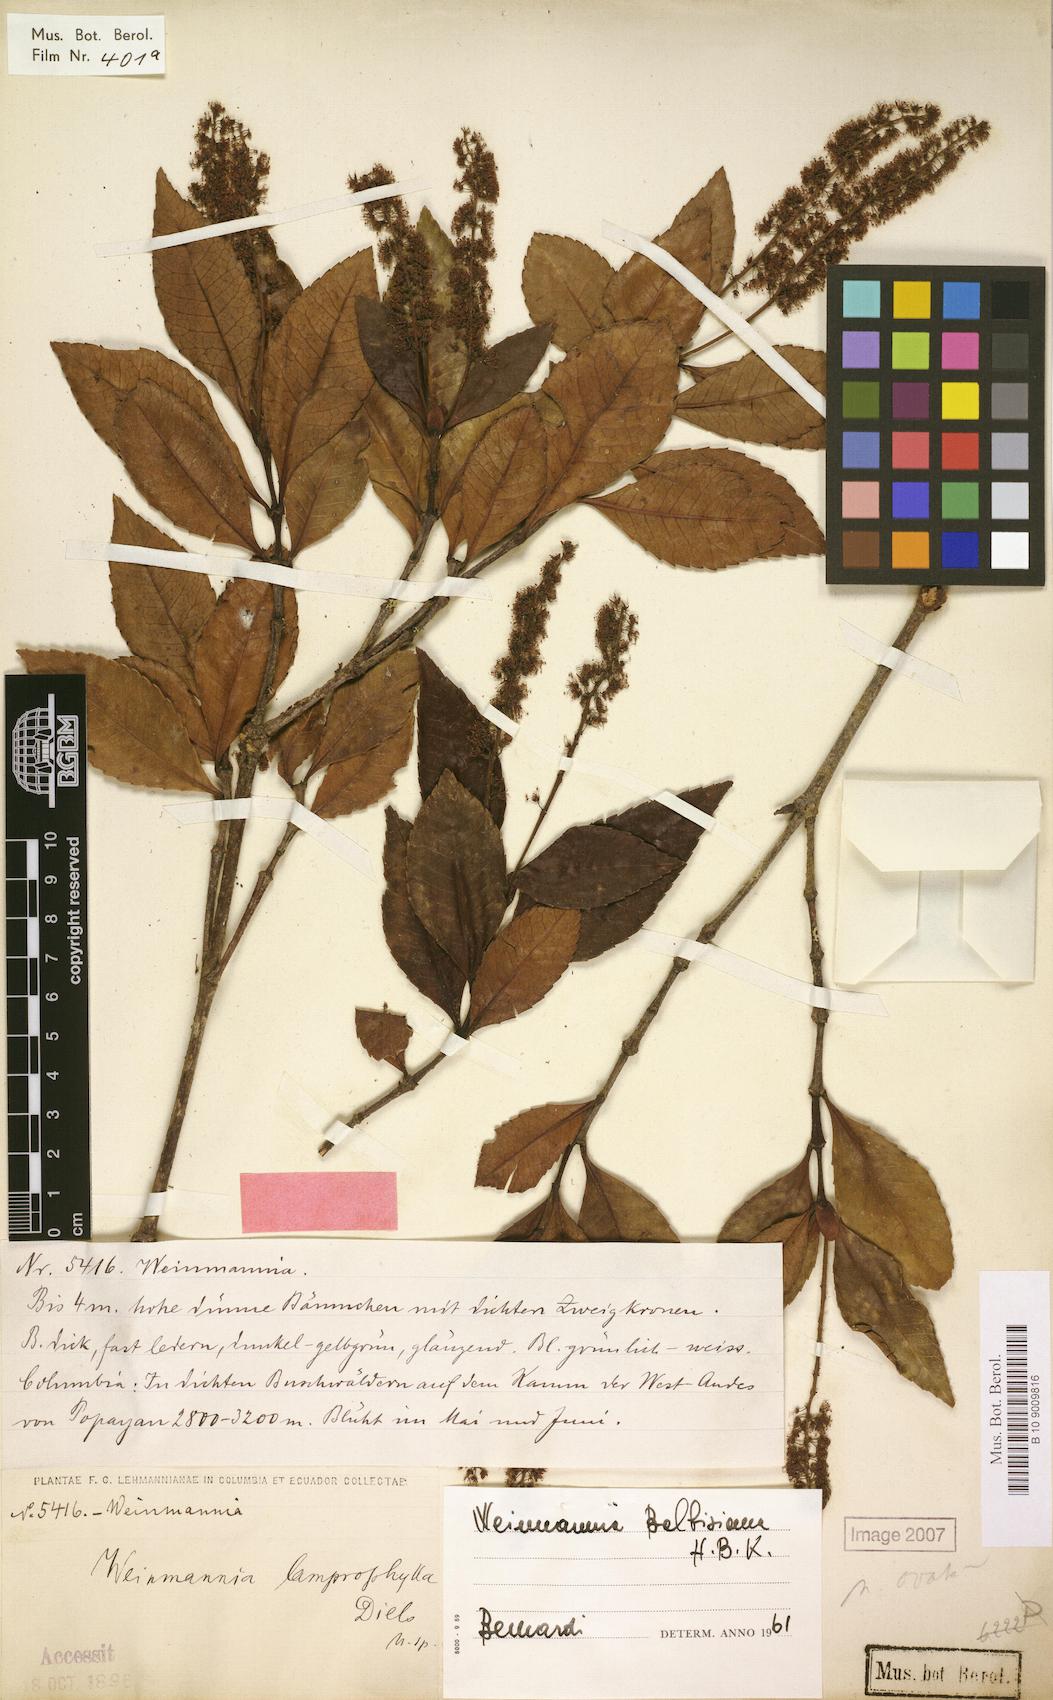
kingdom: Plantae
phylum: Tracheophyta
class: Magnoliopsida
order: Oxalidales
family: Cunoniaceae
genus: Weinmannia
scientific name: Weinmannia balbisana
